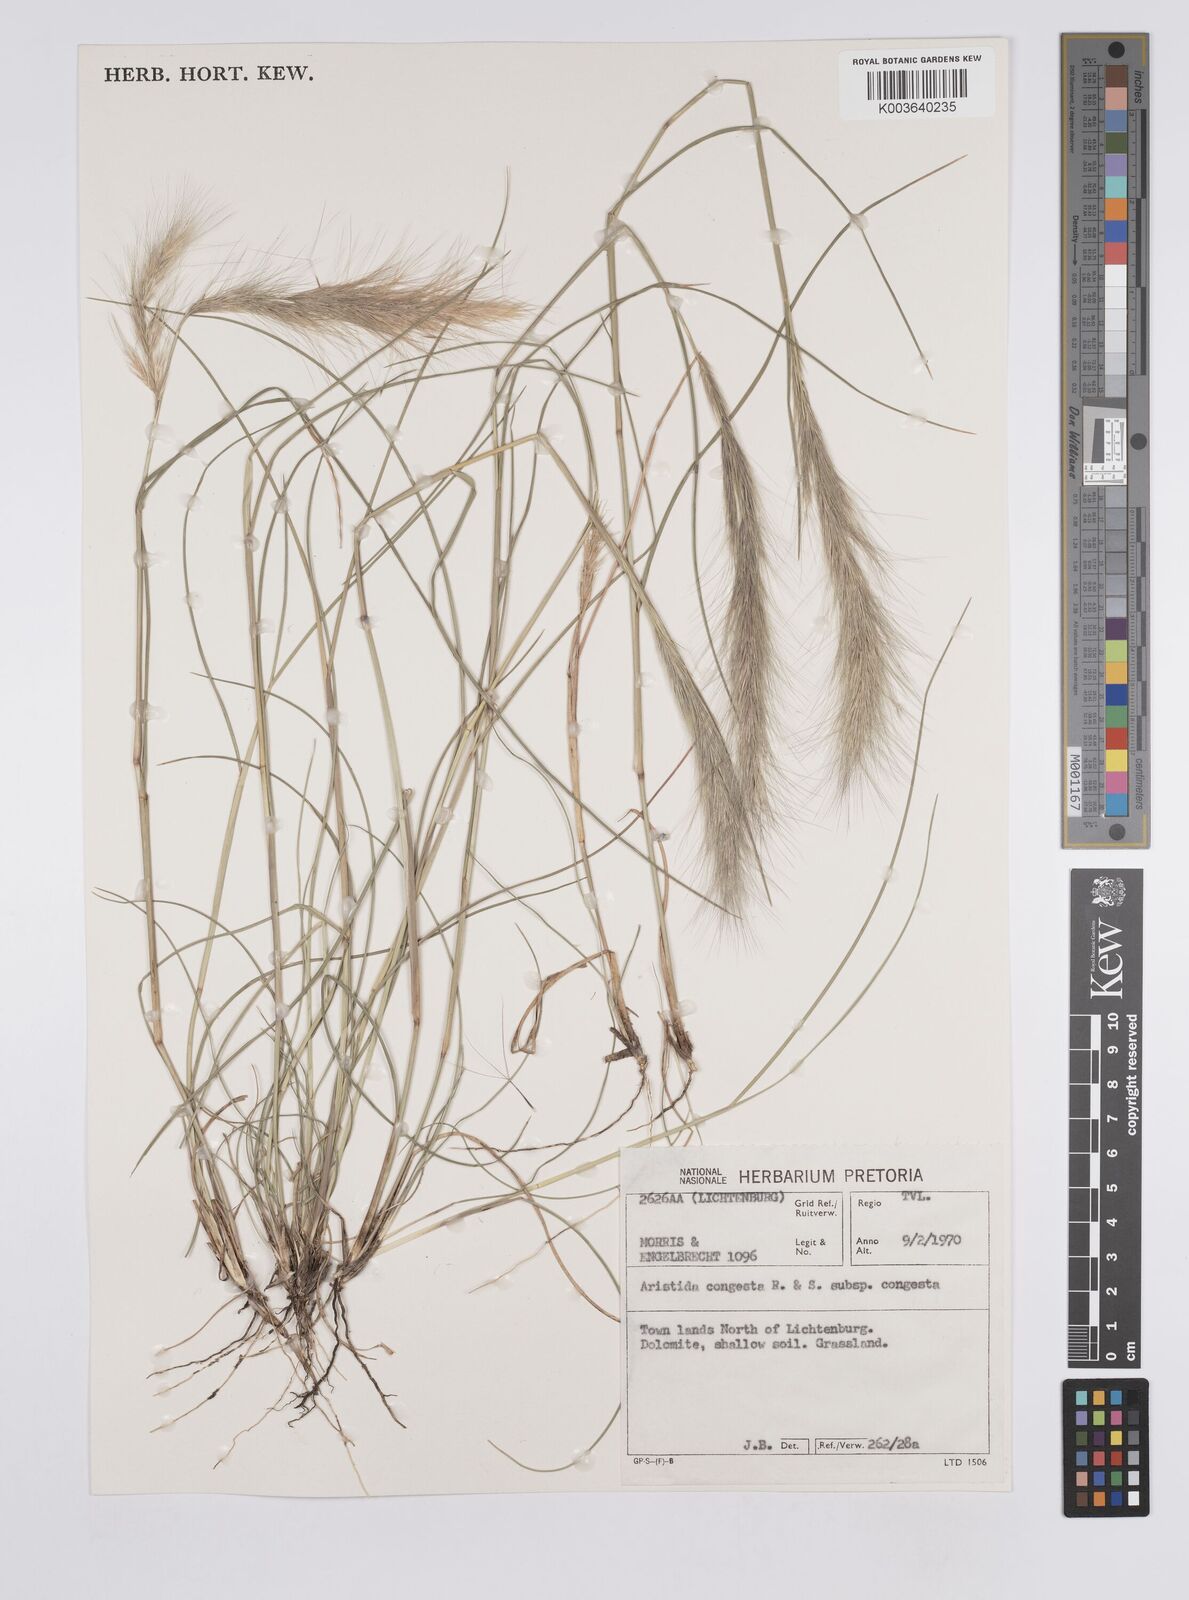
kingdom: Plantae
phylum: Tracheophyta
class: Liliopsida
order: Poales
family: Poaceae
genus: Aristida
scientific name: Aristida congesta
